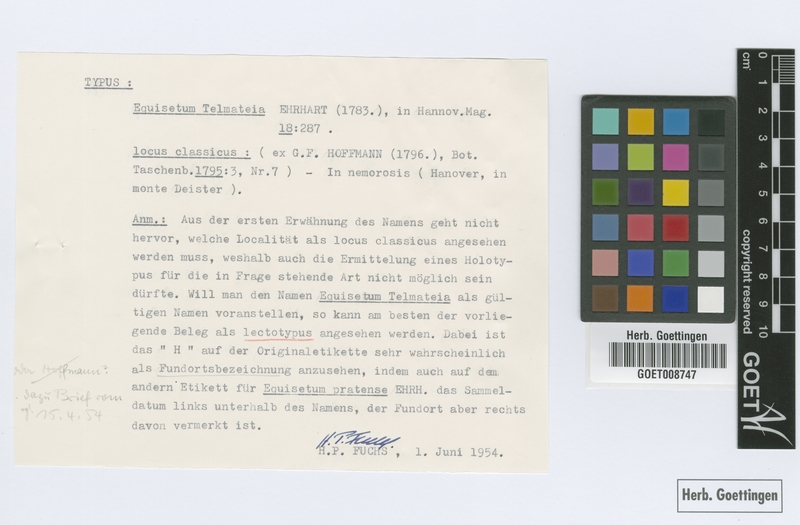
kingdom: Plantae
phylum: Tracheophyta
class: Polypodiopsida
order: Equisetales
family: Equisetaceae
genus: Equisetum
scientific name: Equisetum telmateia
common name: Great horsetail
